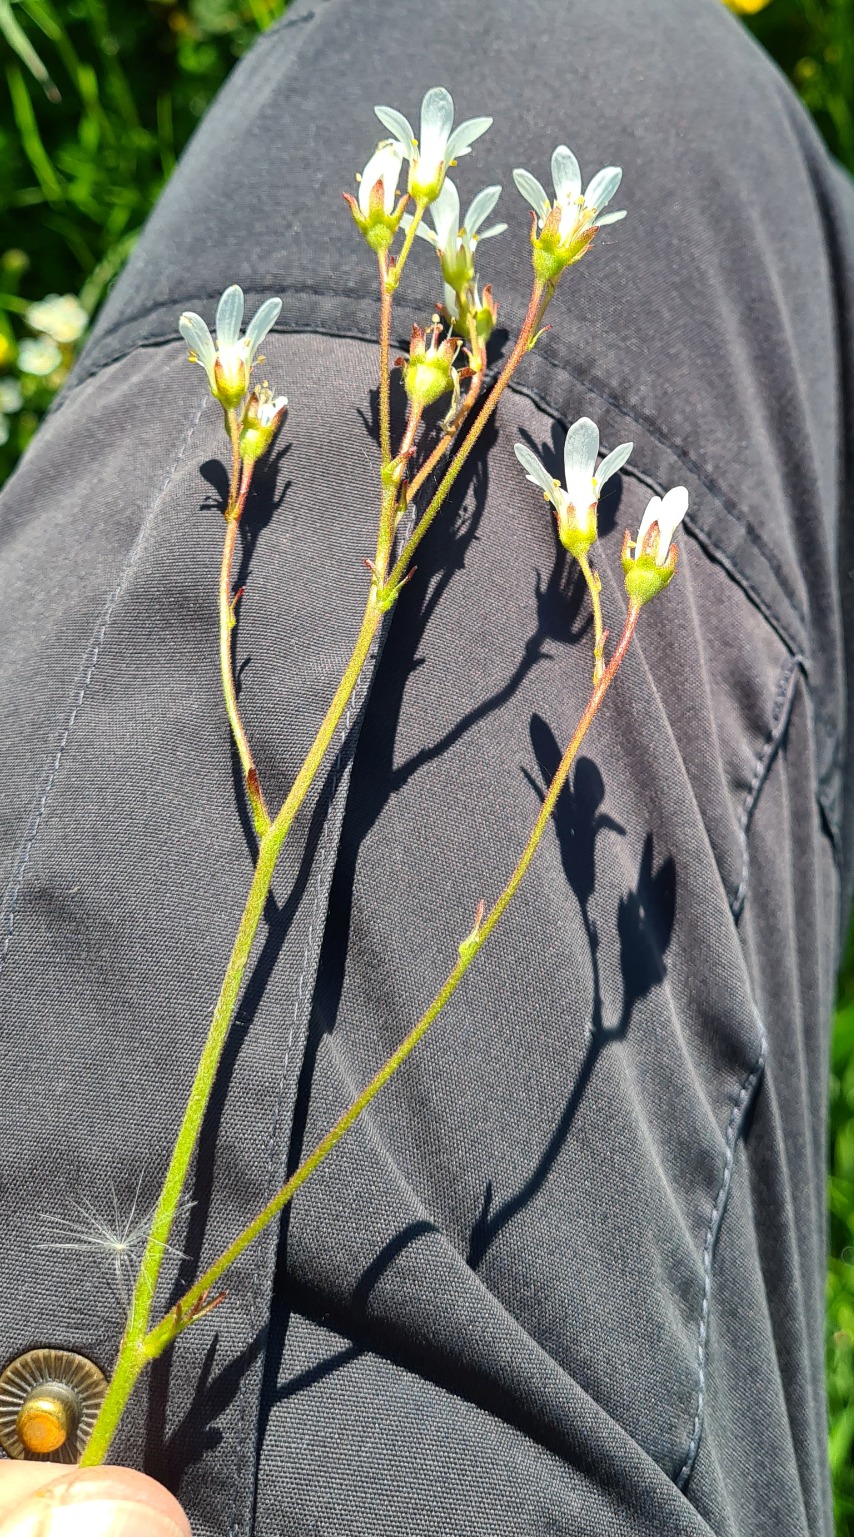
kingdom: Plantae
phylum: Tracheophyta
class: Magnoliopsida
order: Saxifragales
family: Saxifragaceae
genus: Saxifraga
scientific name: Saxifraga granulata
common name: Kornet stenbræk
